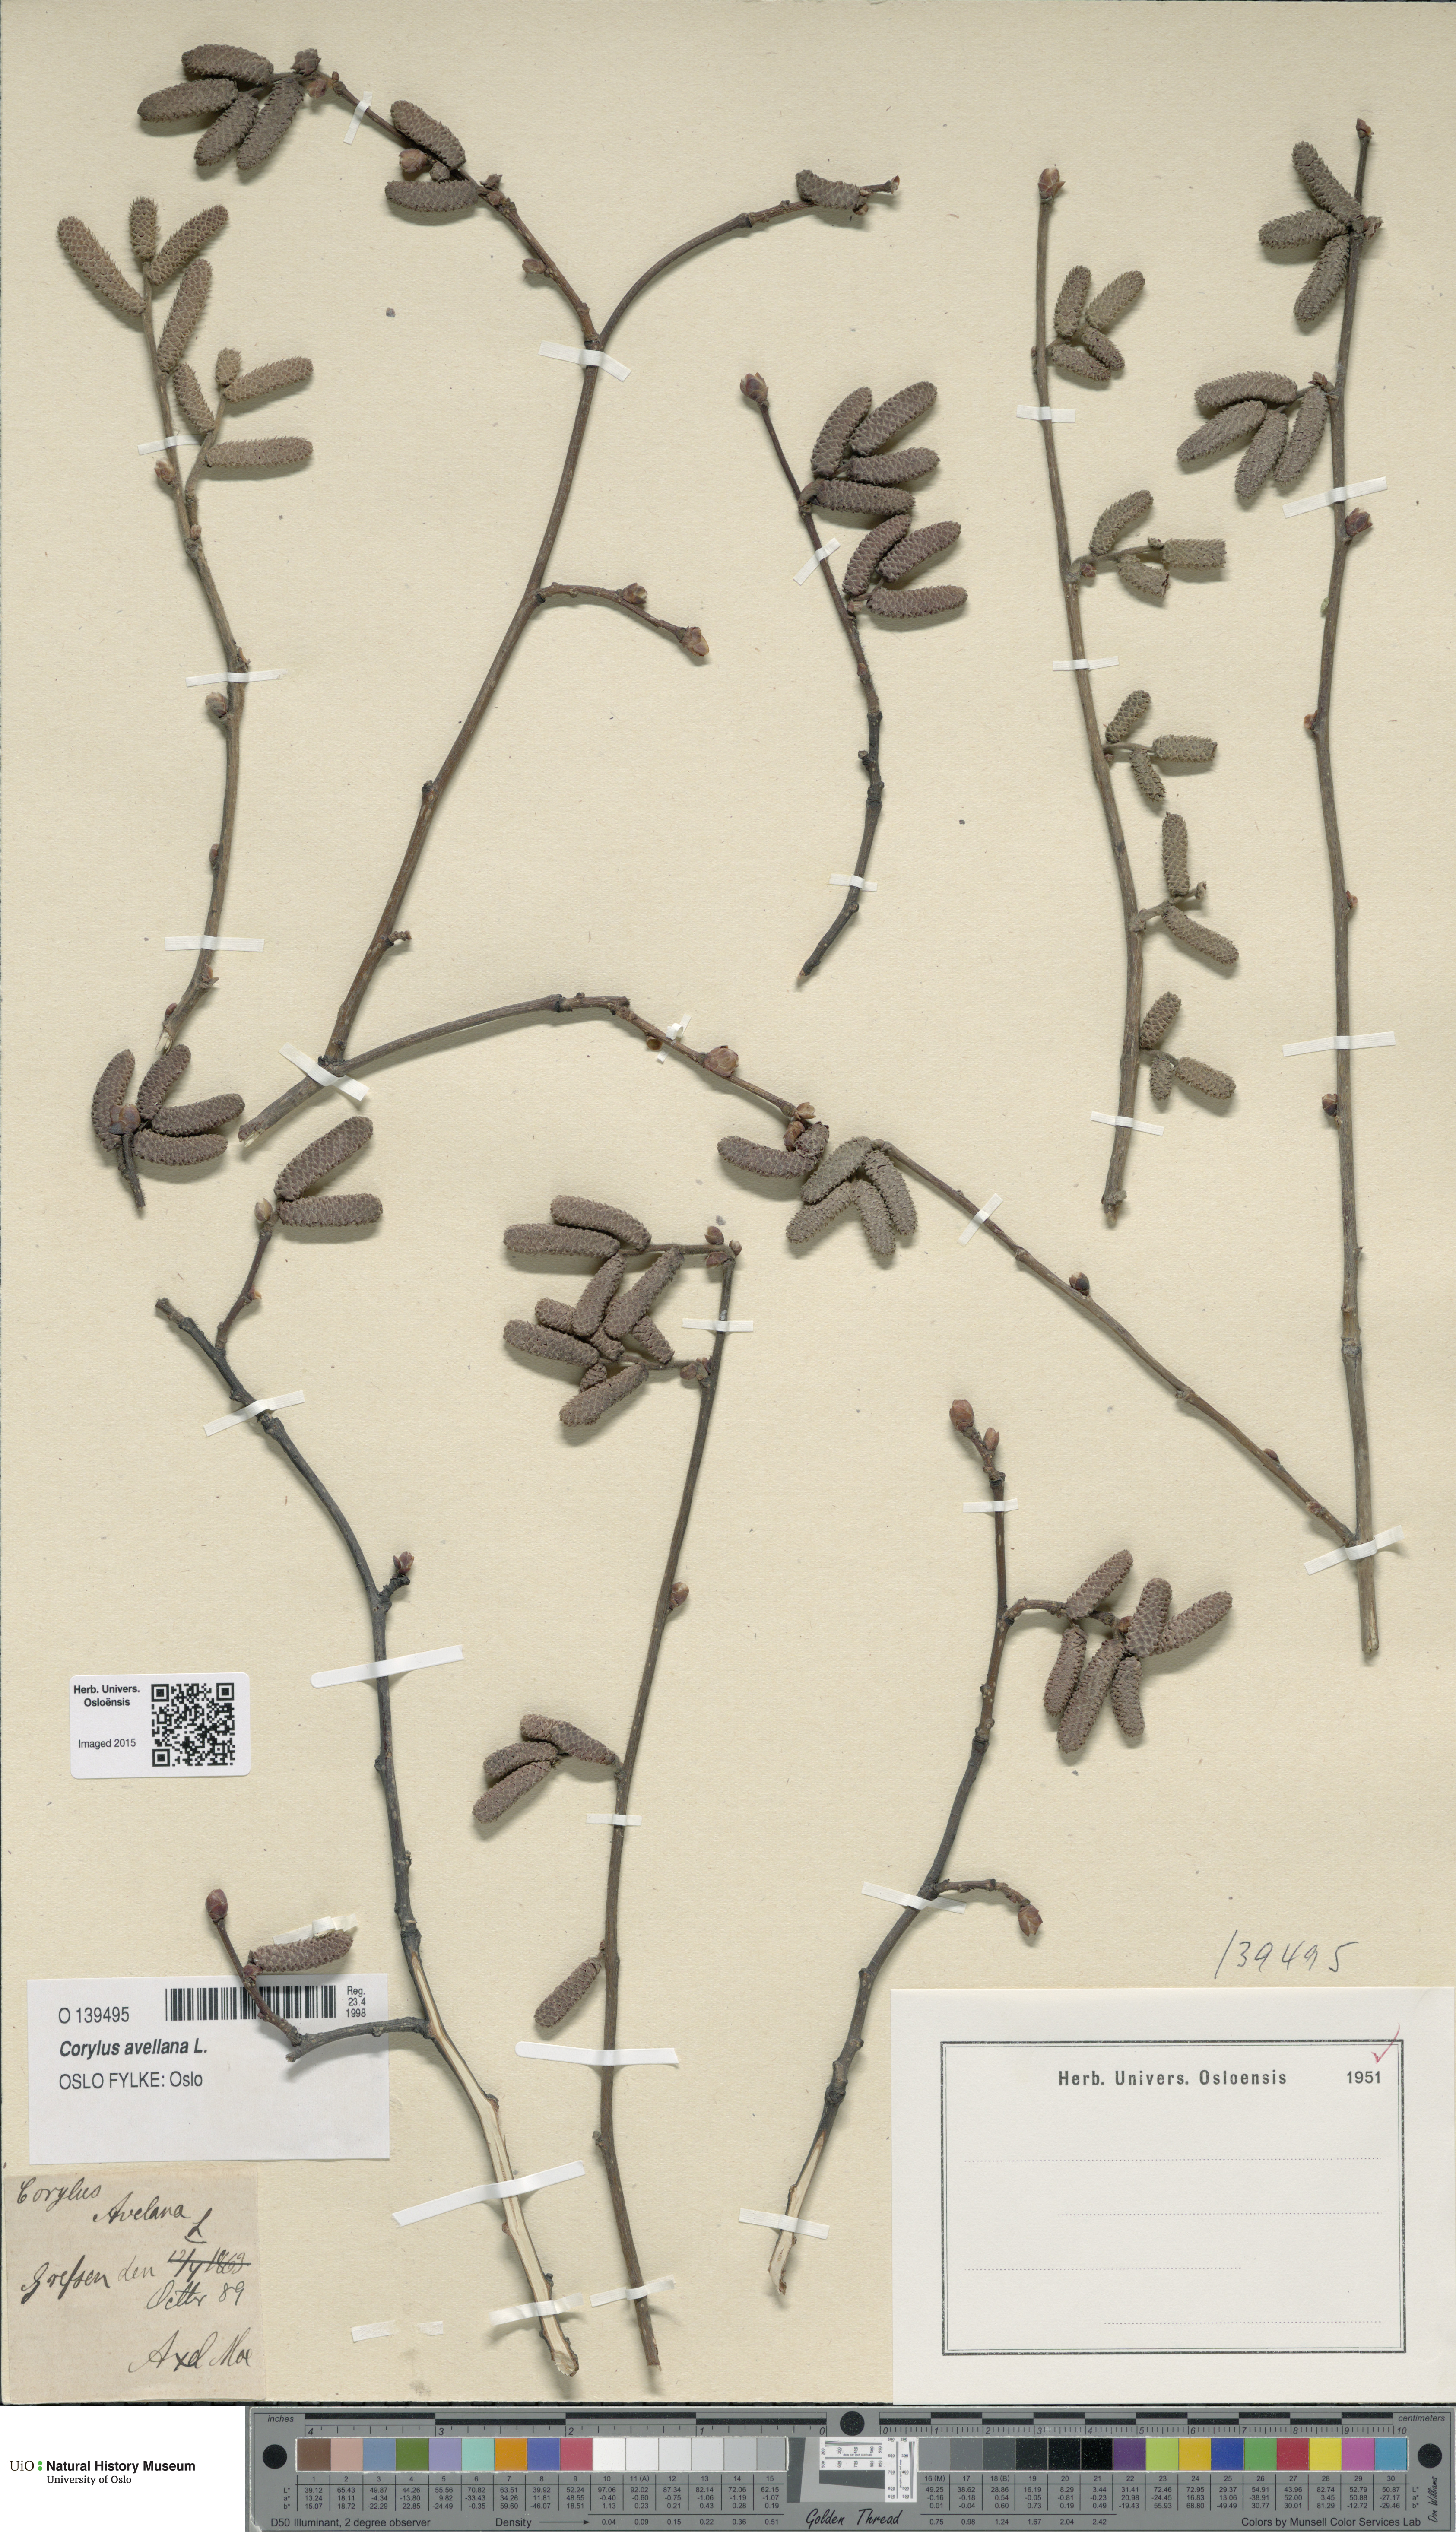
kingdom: Plantae
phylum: Tracheophyta
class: Magnoliopsida
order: Fagales
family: Betulaceae
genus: Corylus
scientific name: Corylus avellana
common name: European hazel
